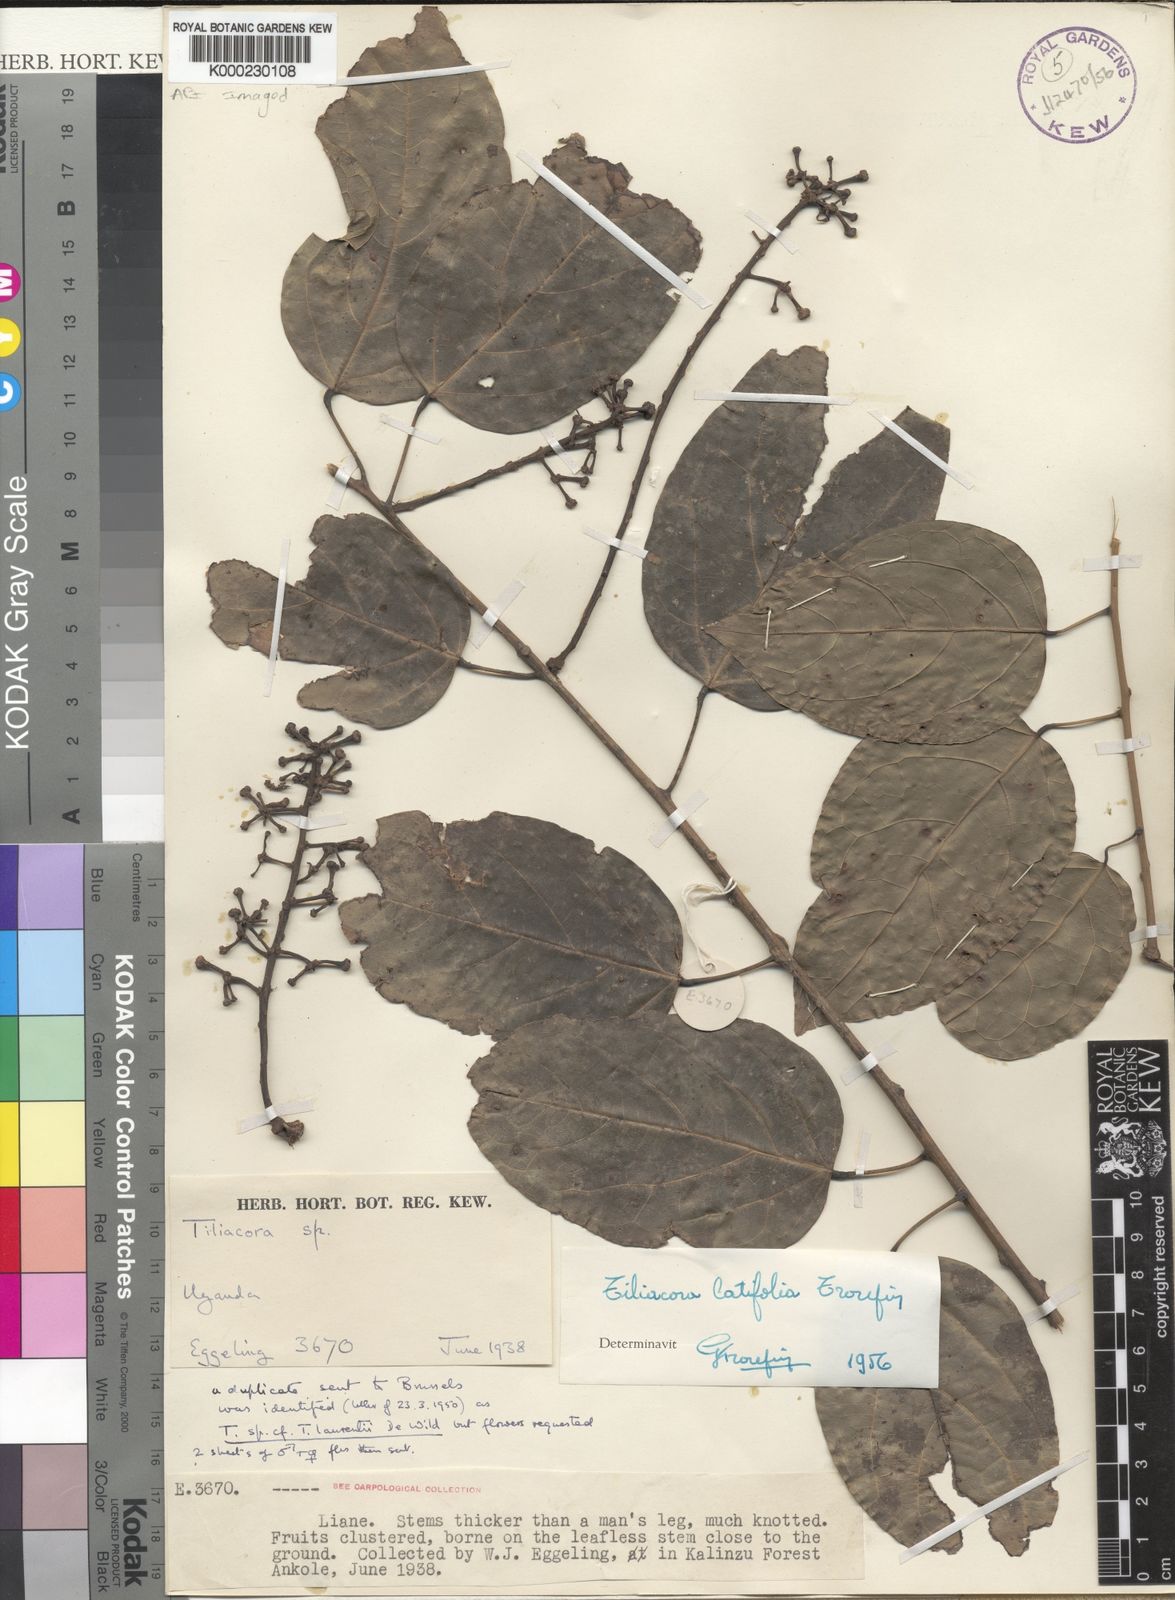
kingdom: Plantae
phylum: Tracheophyta
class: Magnoliopsida
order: Ranunculales
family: Menispermaceae
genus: Tiliacora
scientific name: Tiliacora latifolia
